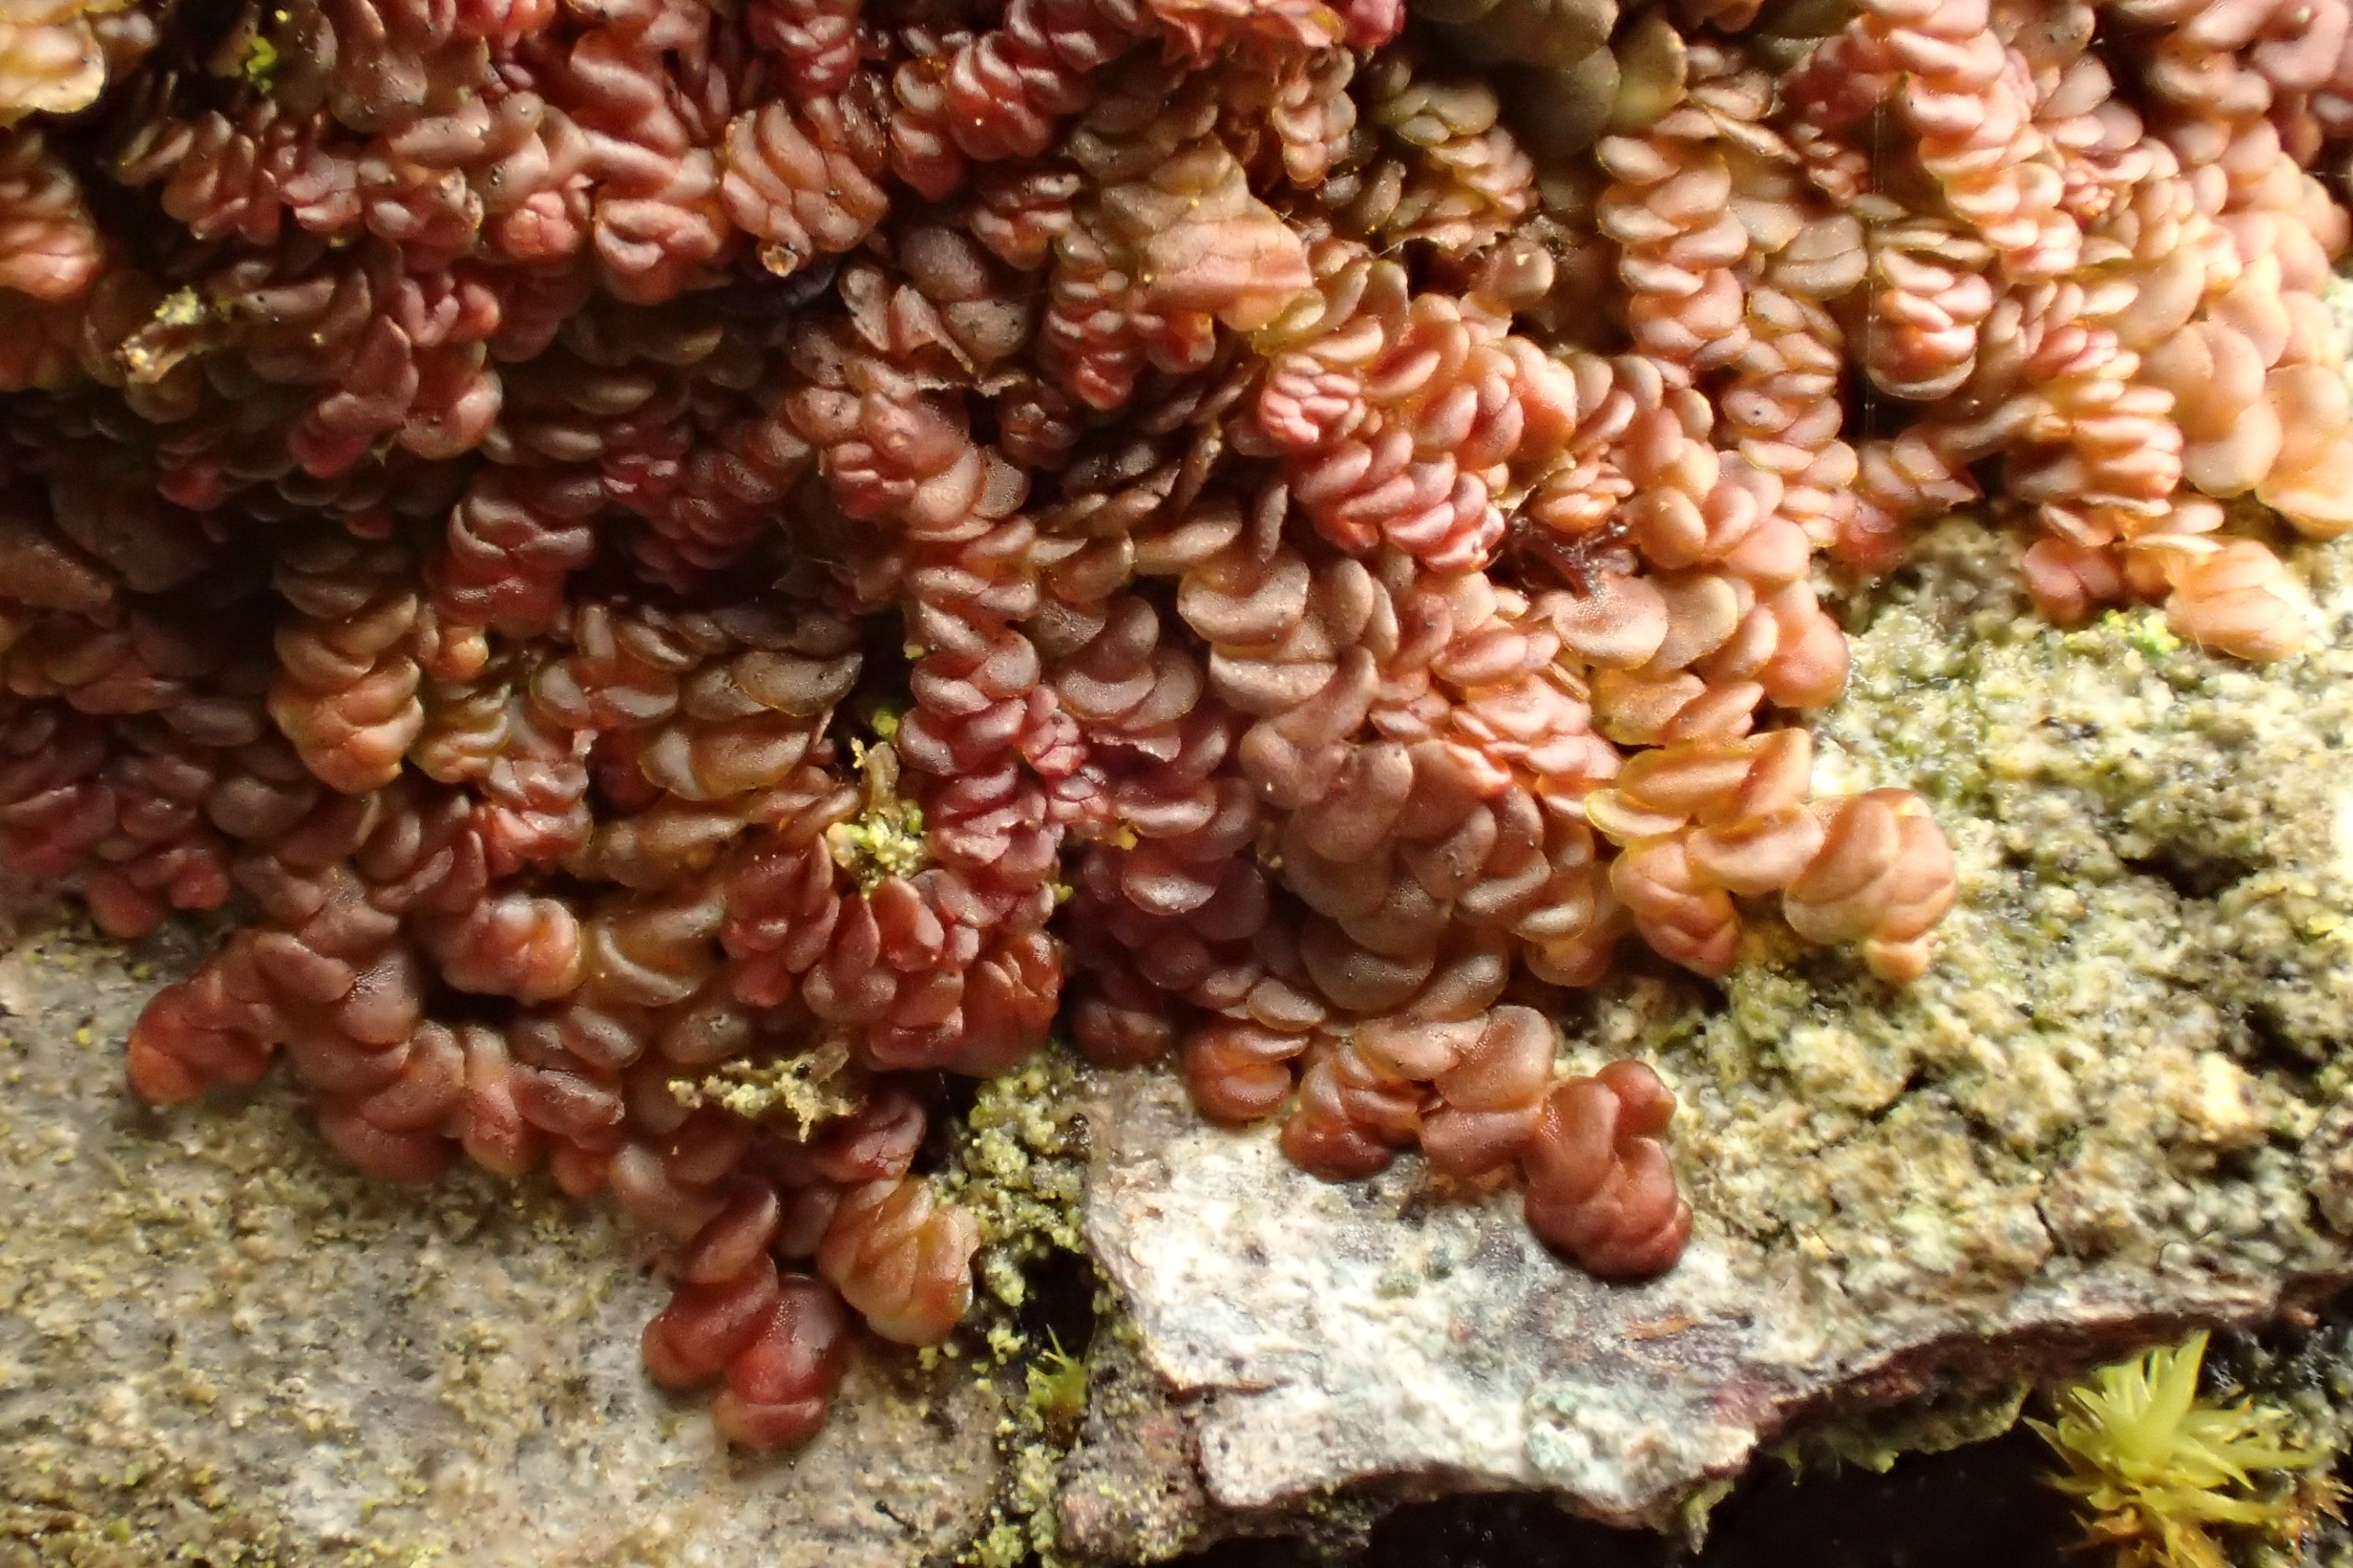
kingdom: Plantae
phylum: Marchantiophyta
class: Jungermanniopsida
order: Porellales
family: Frullaniaceae
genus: Frullania
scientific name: Frullania dilatata
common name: Mat bronzemos
